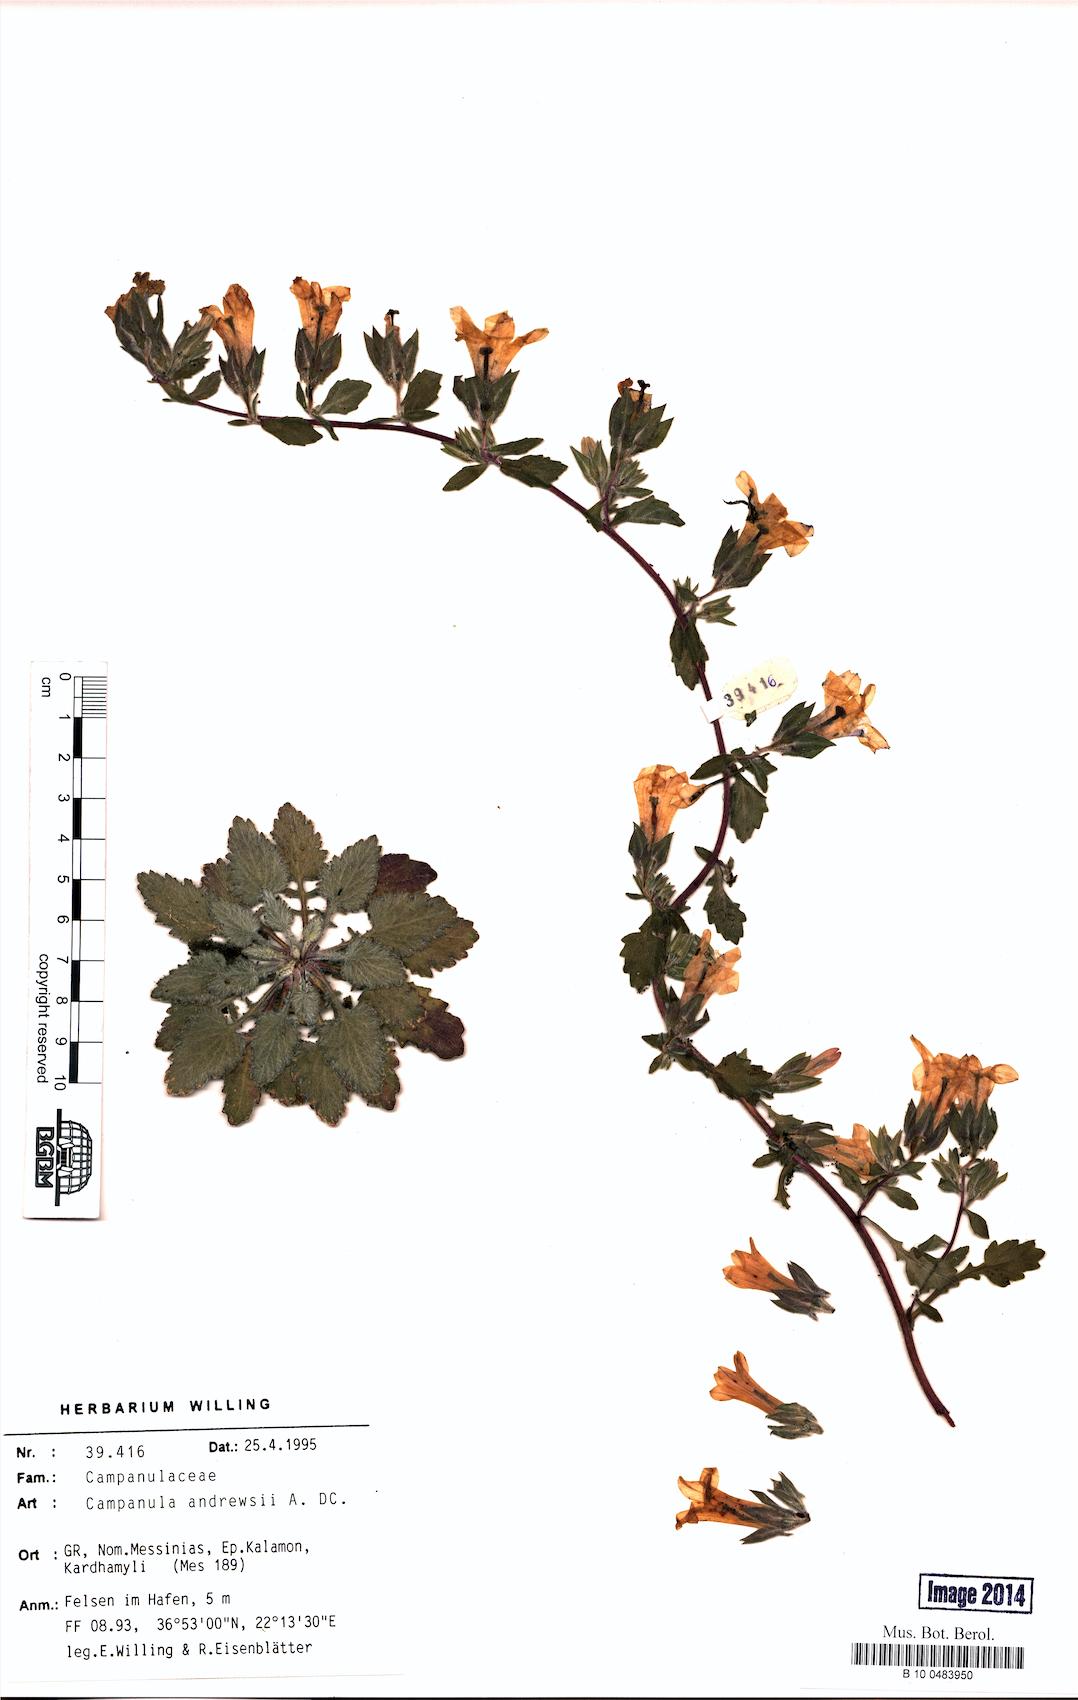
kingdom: Plantae
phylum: Tracheophyta
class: Magnoliopsida
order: Asterales
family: Campanulaceae
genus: Campanula
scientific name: Campanula andrewsii
